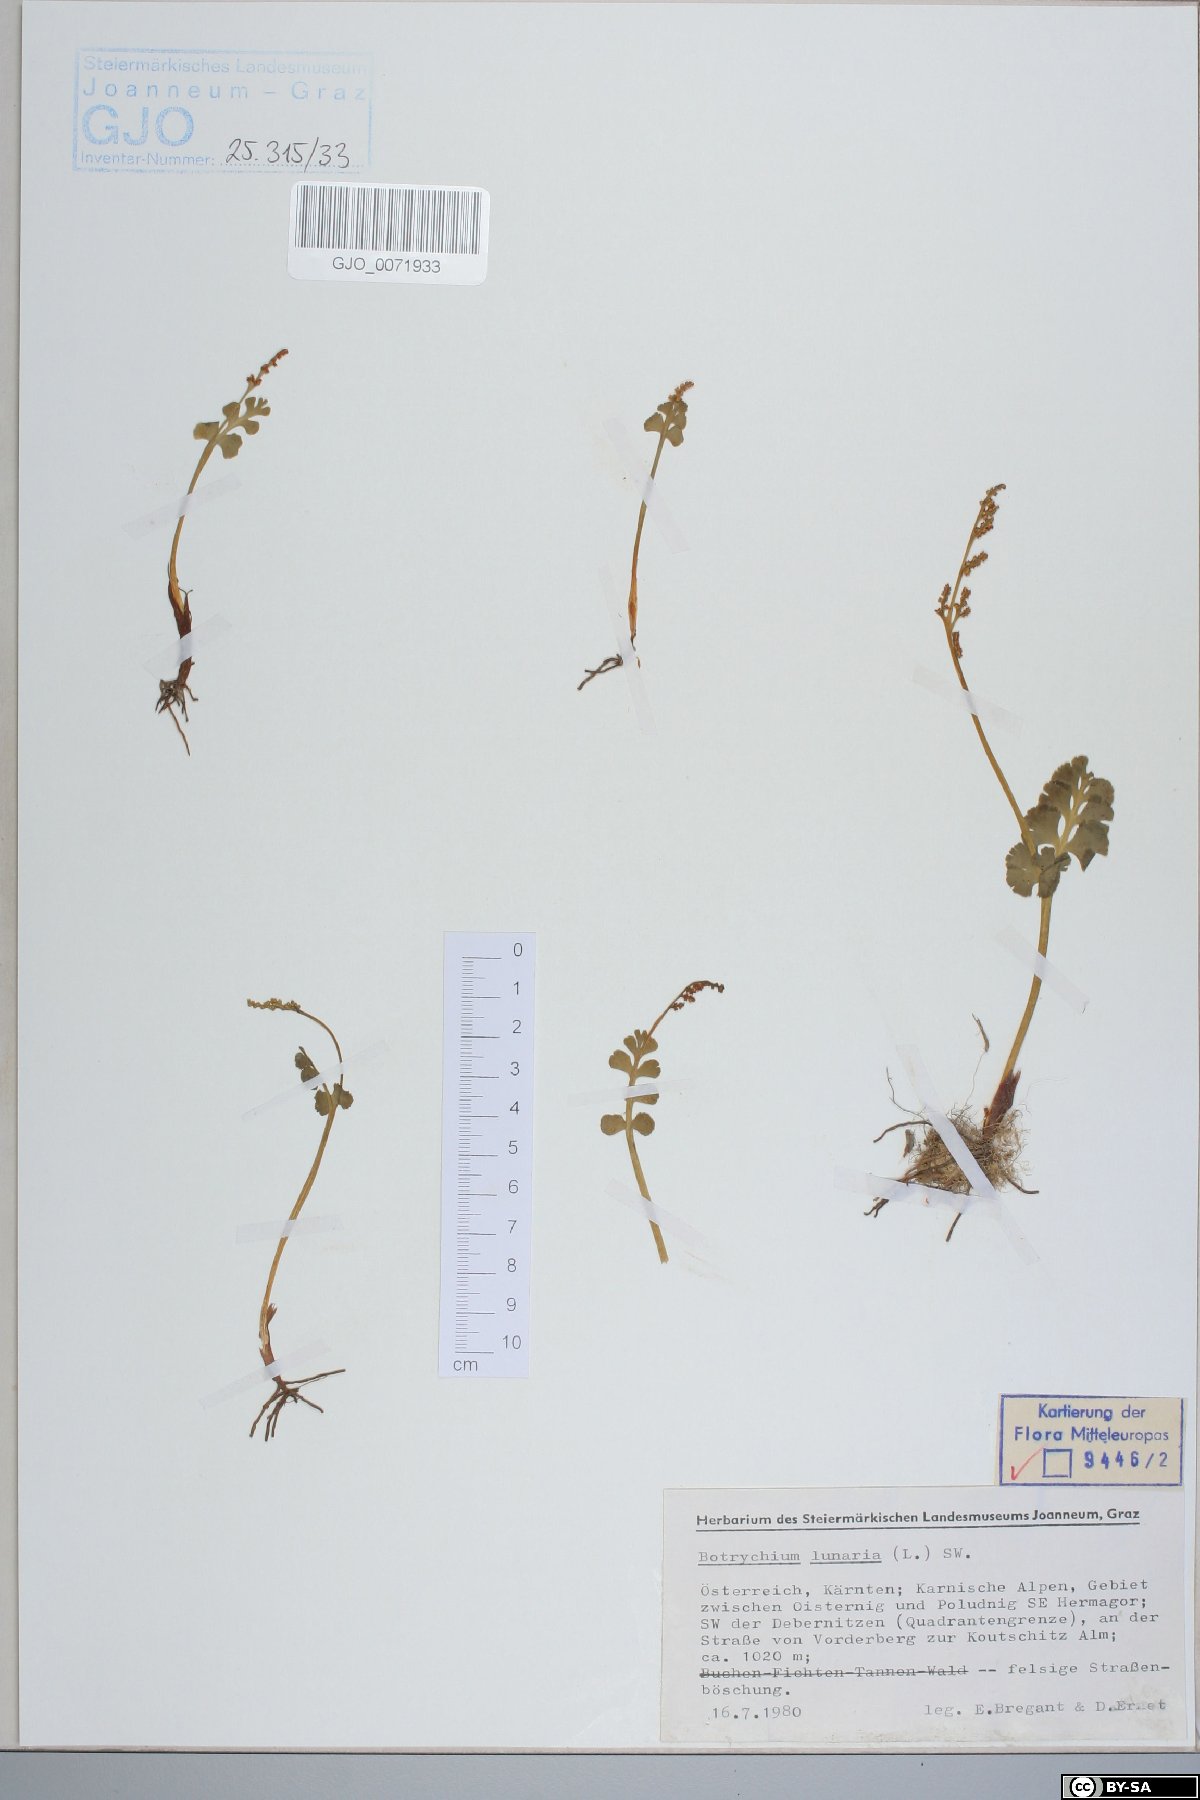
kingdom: Plantae
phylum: Tracheophyta
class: Polypodiopsida
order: Ophioglossales
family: Ophioglossaceae
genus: Botrychium
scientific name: Botrychium lunaria
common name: Moonwort
